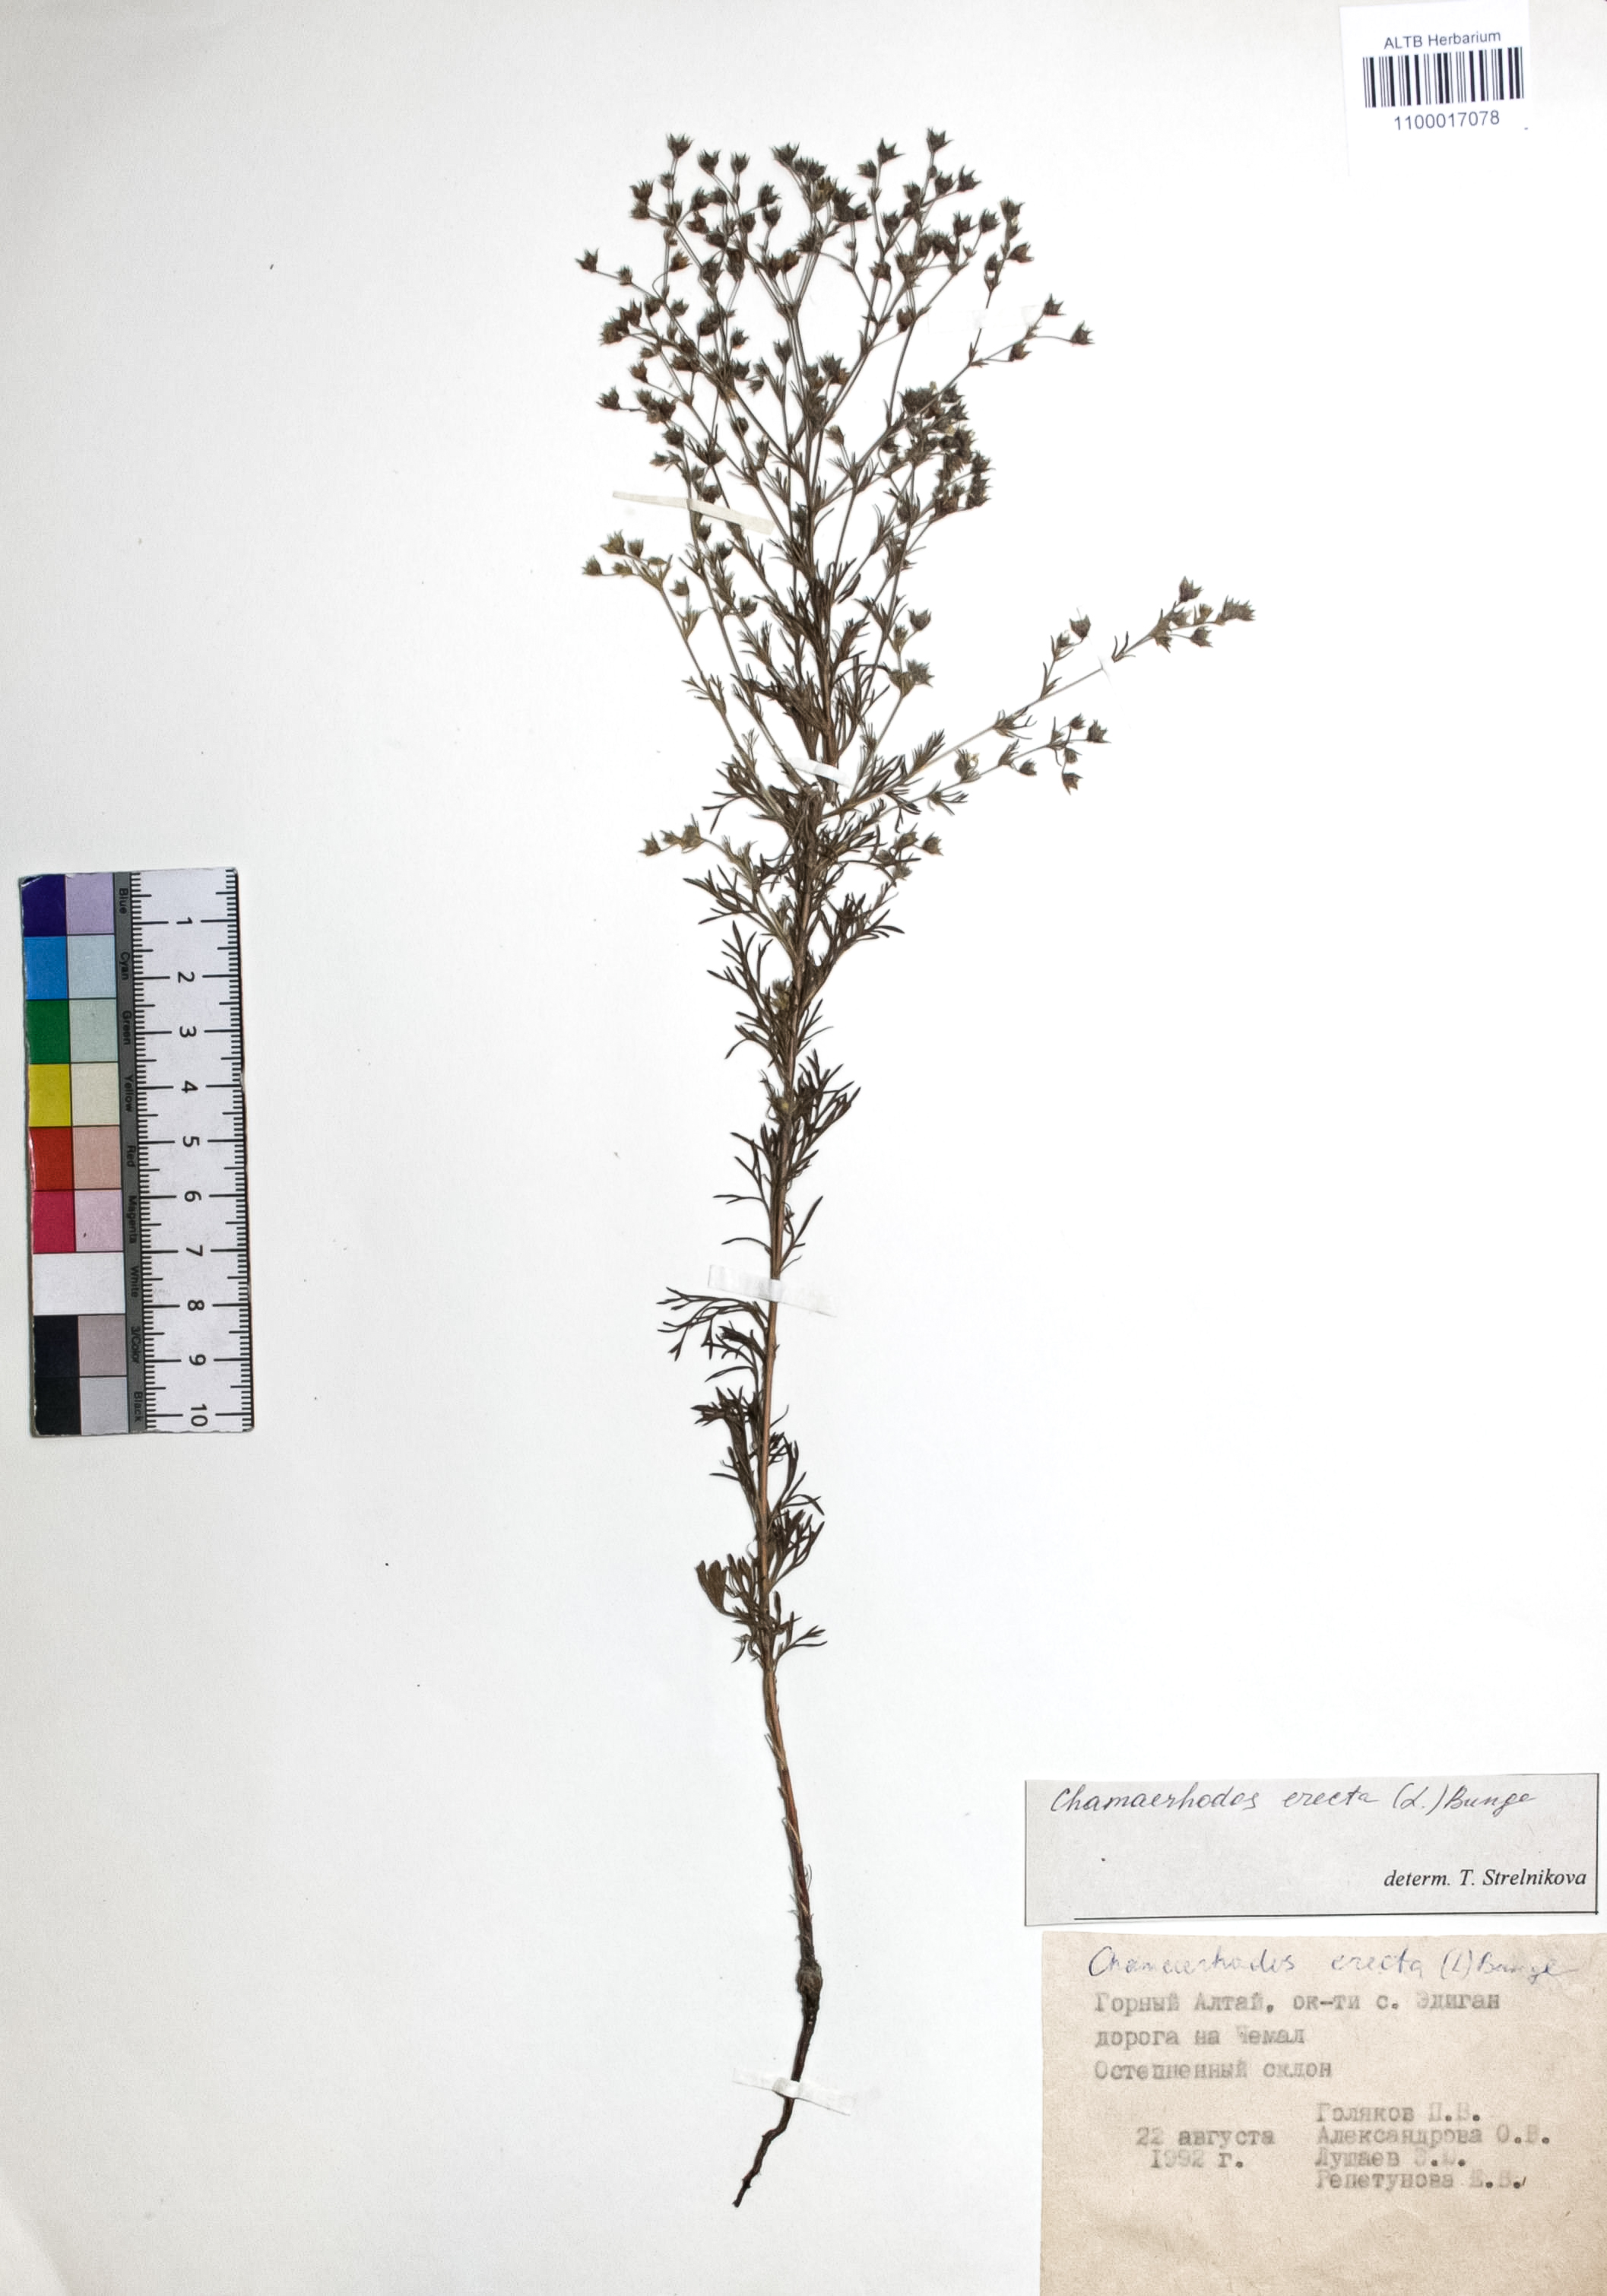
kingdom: Plantae
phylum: Tracheophyta
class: Magnoliopsida
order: Rosales
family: Rosaceae
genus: Chamaerhodos
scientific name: Chamaerhodos erecta
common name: American chamaerhodos
